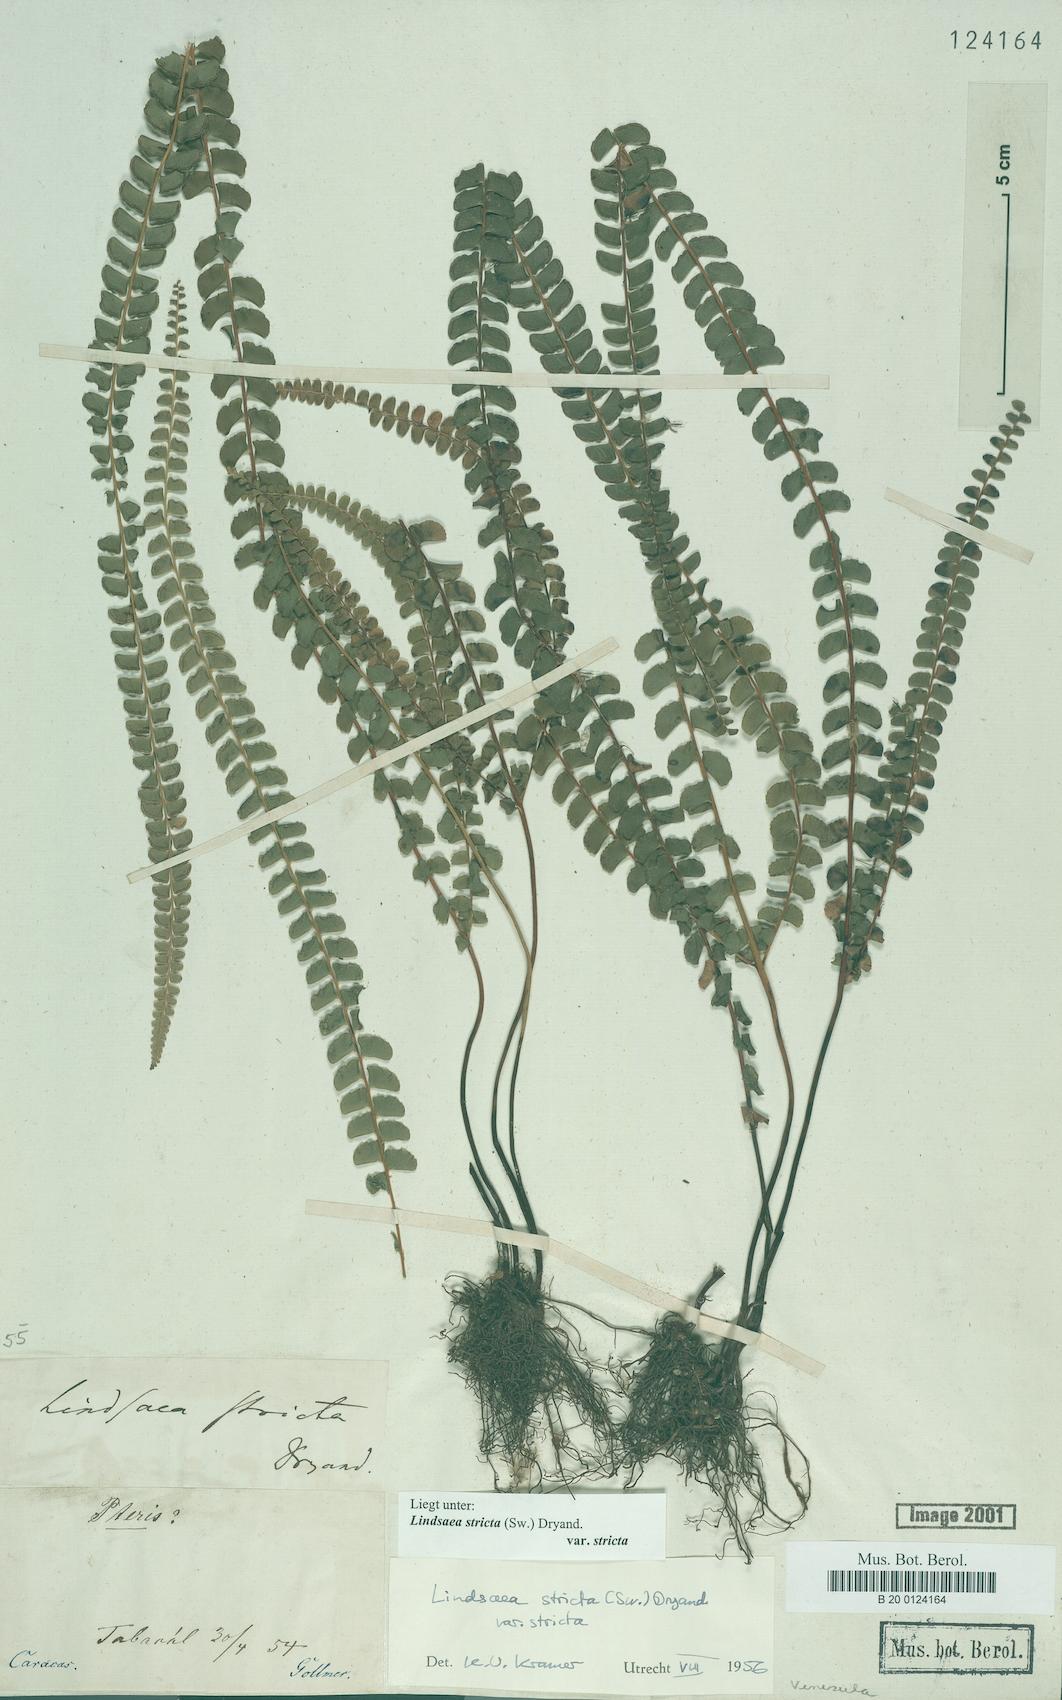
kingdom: Plantae
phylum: Tracheophyta
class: Polypodiopsida
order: Polypodiales
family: Lindsaeaceae
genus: Lindsaea
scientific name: Lindsaea stricta
